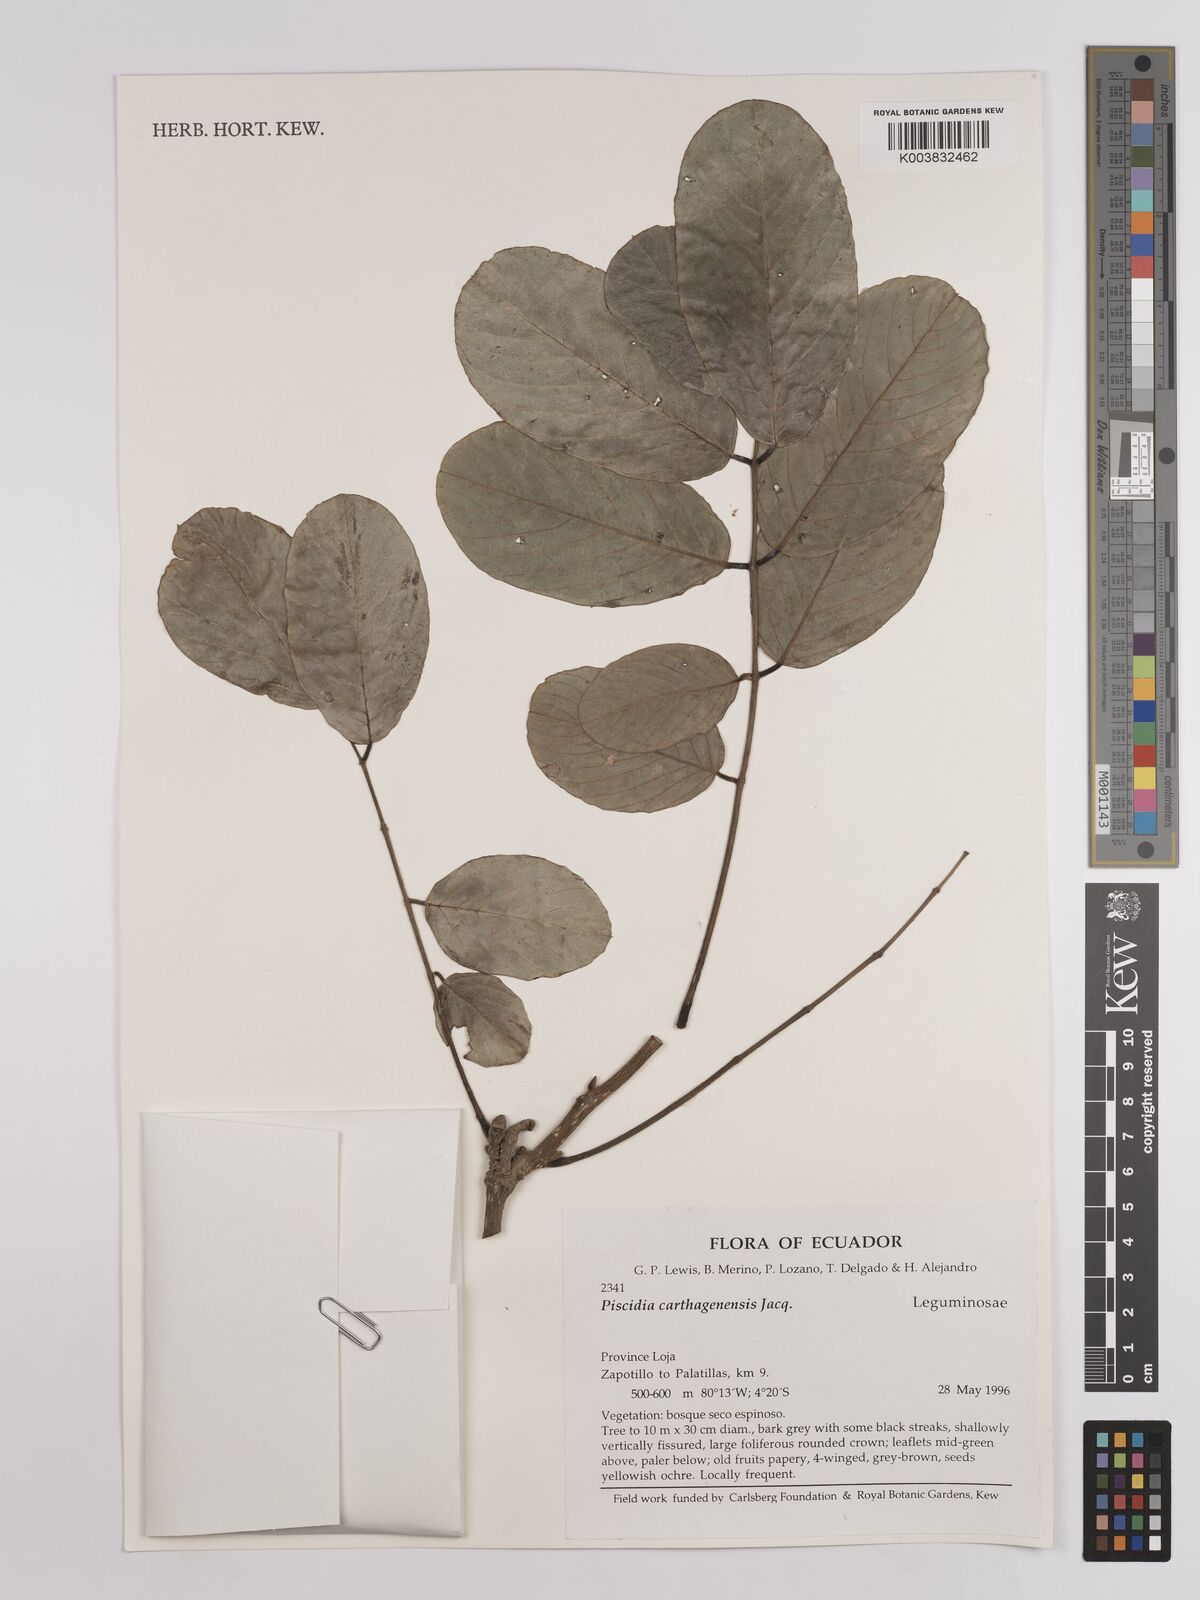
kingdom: Plantae
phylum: Tracheophyta
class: Magnoliopsida
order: Fabales
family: Fabaceae
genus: Piscidia
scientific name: Piscidia carthagenensis
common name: Stinkwood
